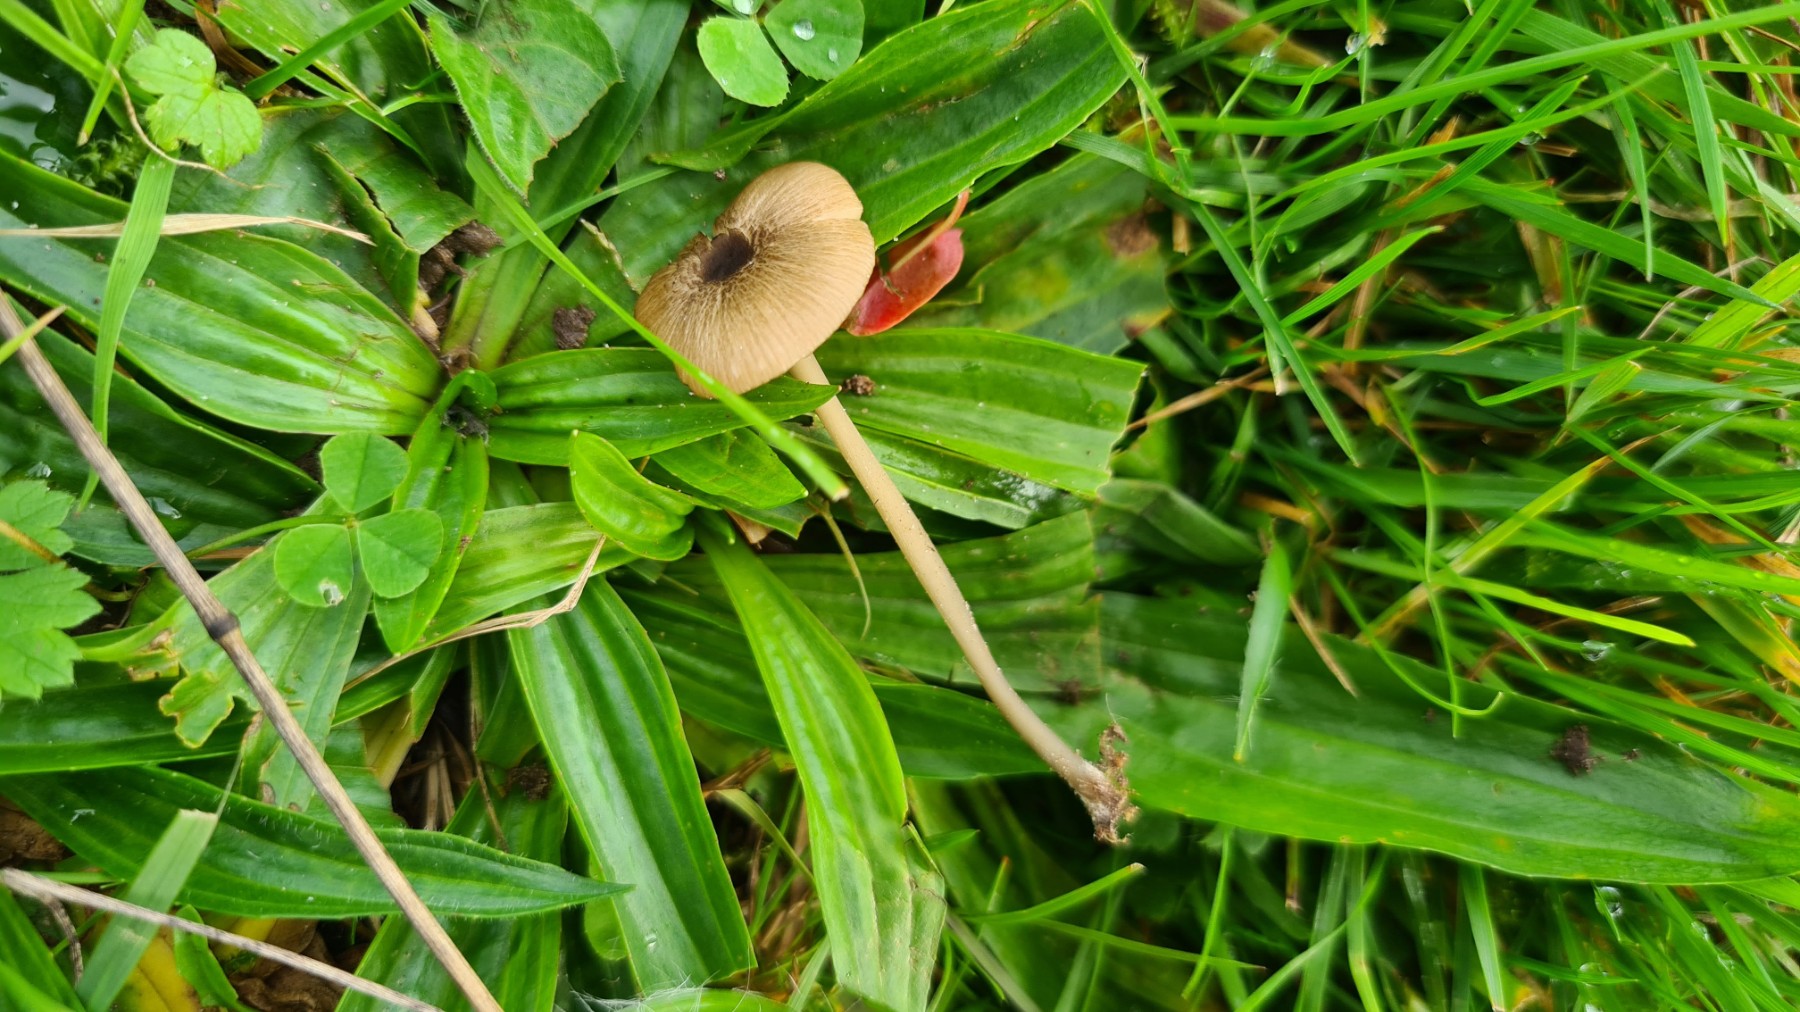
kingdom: Fungi
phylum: Basidiomycota
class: Agaricomycetes
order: Agaricales
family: Entolomataceae
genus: Entoloma
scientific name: Entoloma exile
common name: rødplettet rødblad
